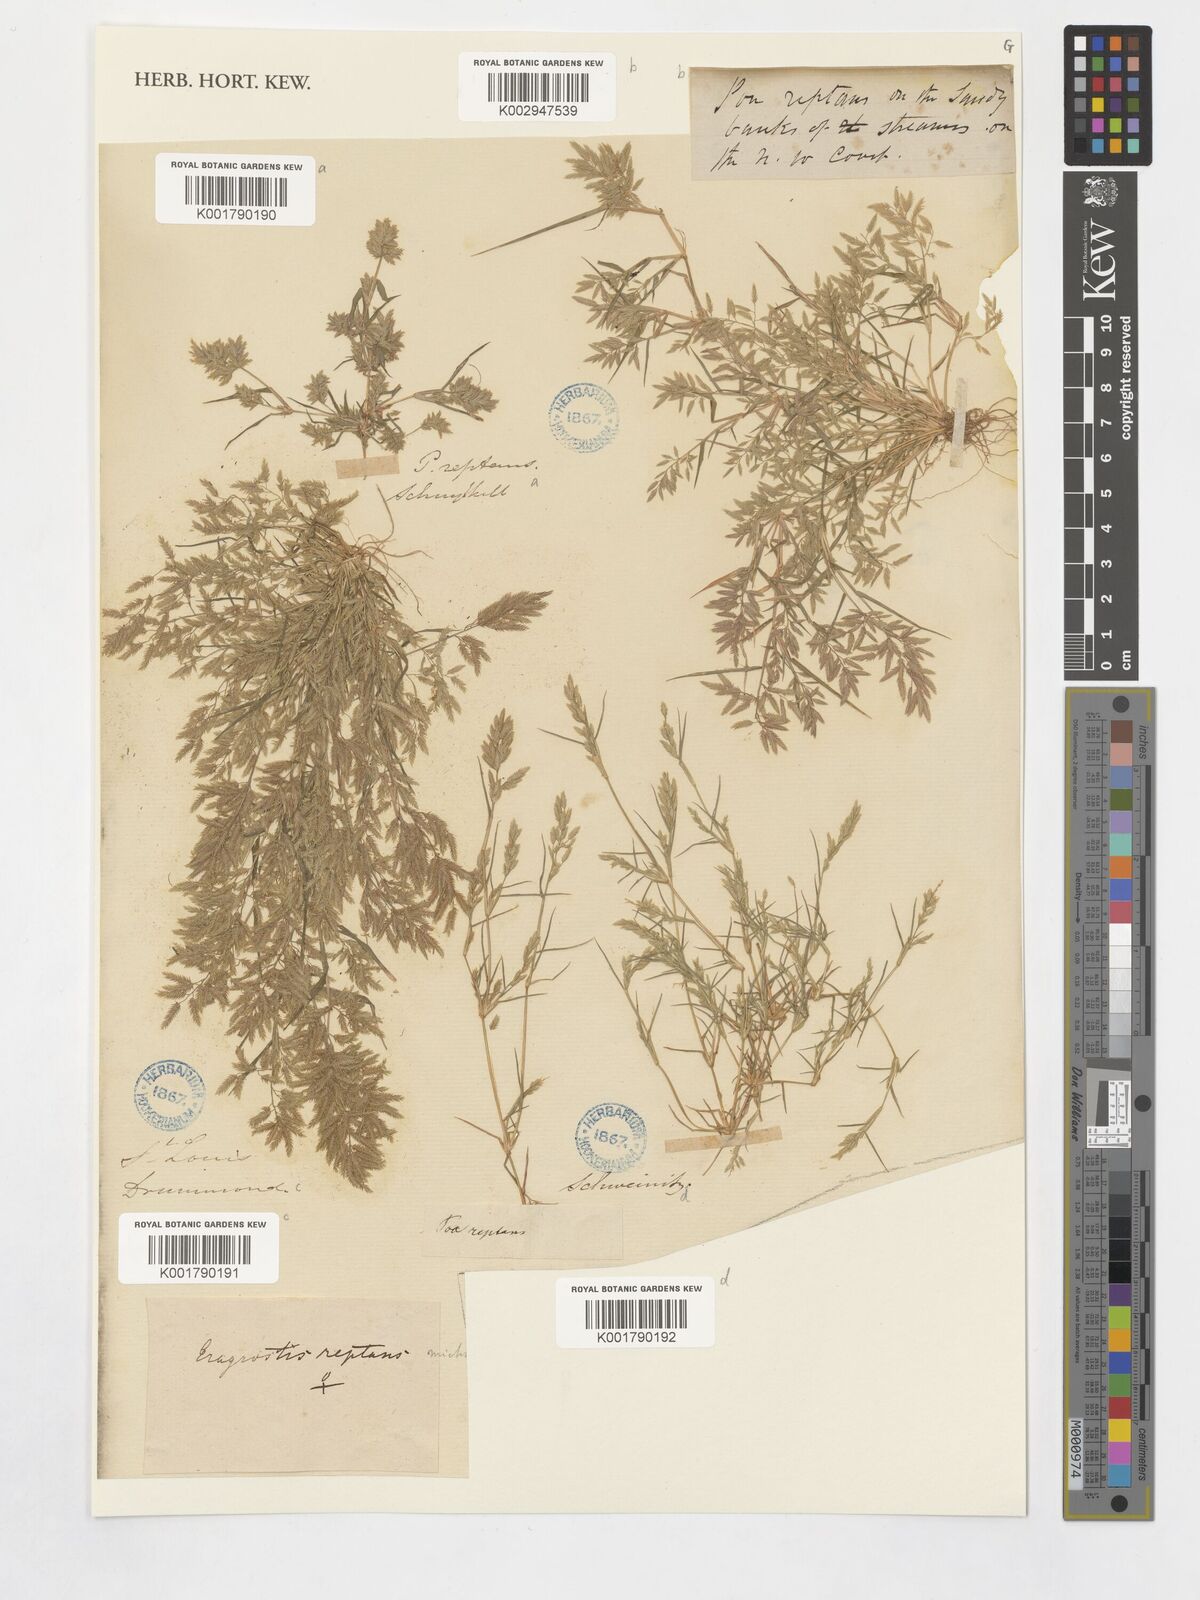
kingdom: Plantae
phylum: Tracheophyta
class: Liliopsida
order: Poales
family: Poaceae
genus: Eragrostis
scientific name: Eragrostis reptans
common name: Creeping love grass
